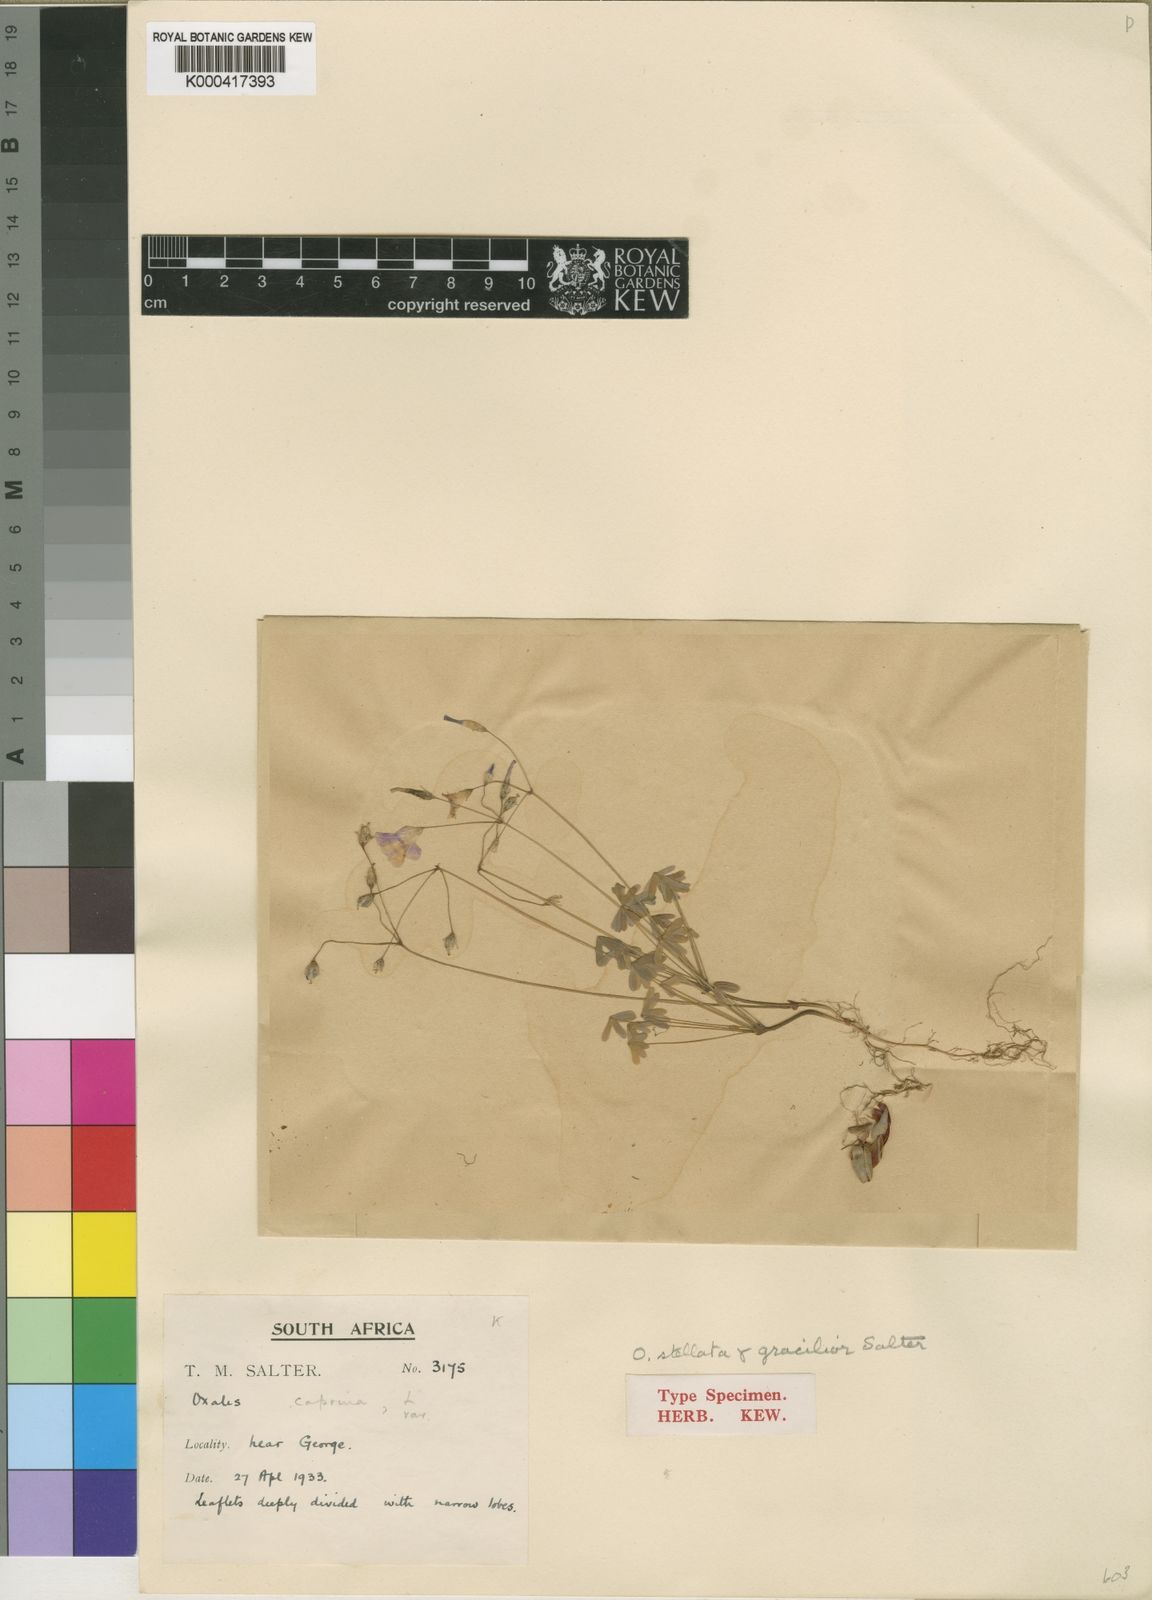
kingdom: Plantae
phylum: Tracheophyta
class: Magnoliopsida
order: Oxalidales
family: Oxalidaceae
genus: Oxalis
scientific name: Oxalis stellata
